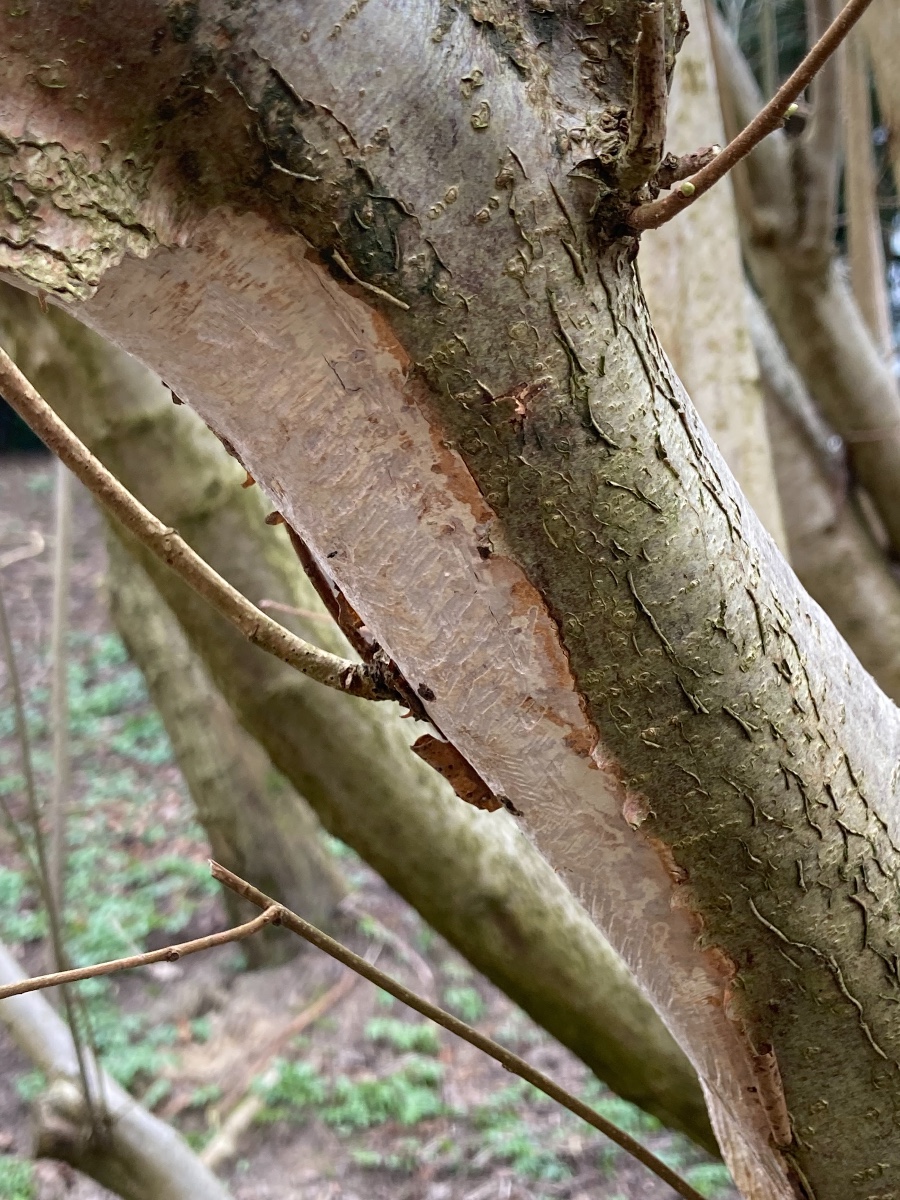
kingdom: Fungi
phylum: Basidiomycota
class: Agaricomycetes
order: Corticiales
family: Vuilleminiaceae
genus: Vuilleminia
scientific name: Vuilleminia coryli
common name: hassel-barksprænger
